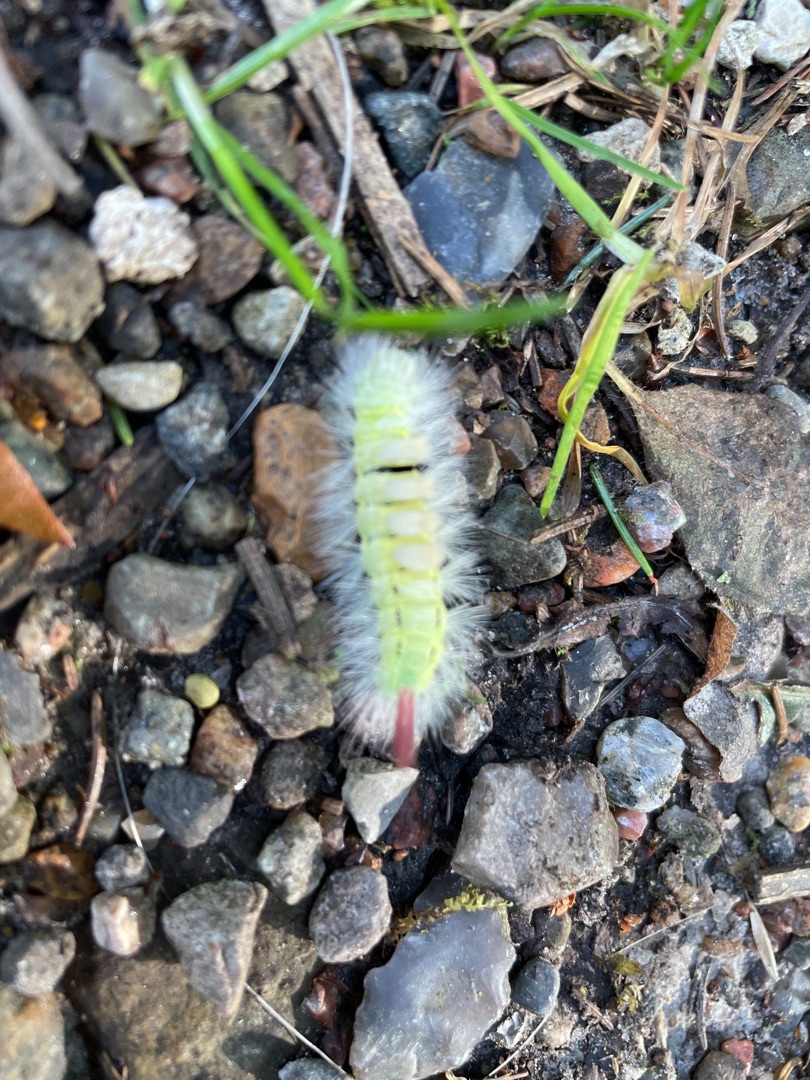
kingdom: Animalia
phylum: Arthropoda
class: Insecta
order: Lepidoptera
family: Erebidae
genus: Calliteara
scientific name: Calliteara pudibunda
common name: Bøgenonne
